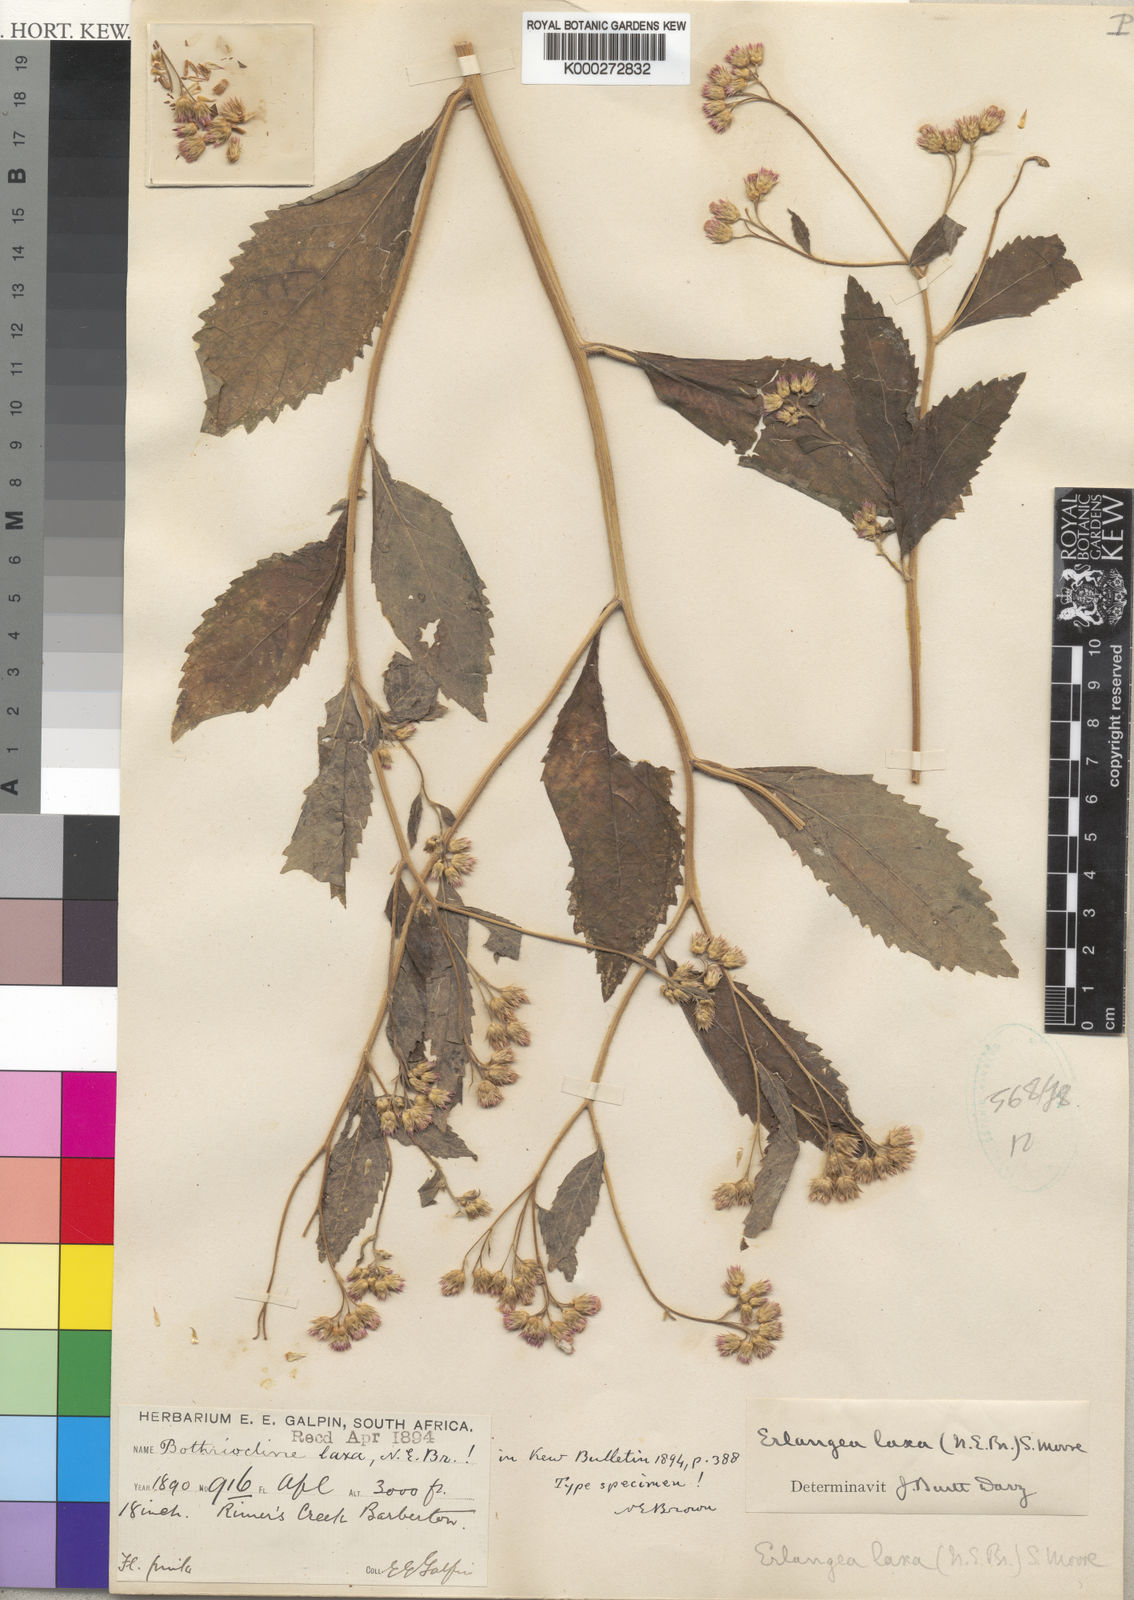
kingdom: Plantae
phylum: Tracheophyta
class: Magnoliopsida
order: Asterales
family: Asteraceae
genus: Bothriocline
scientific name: Bothriocline laxa
